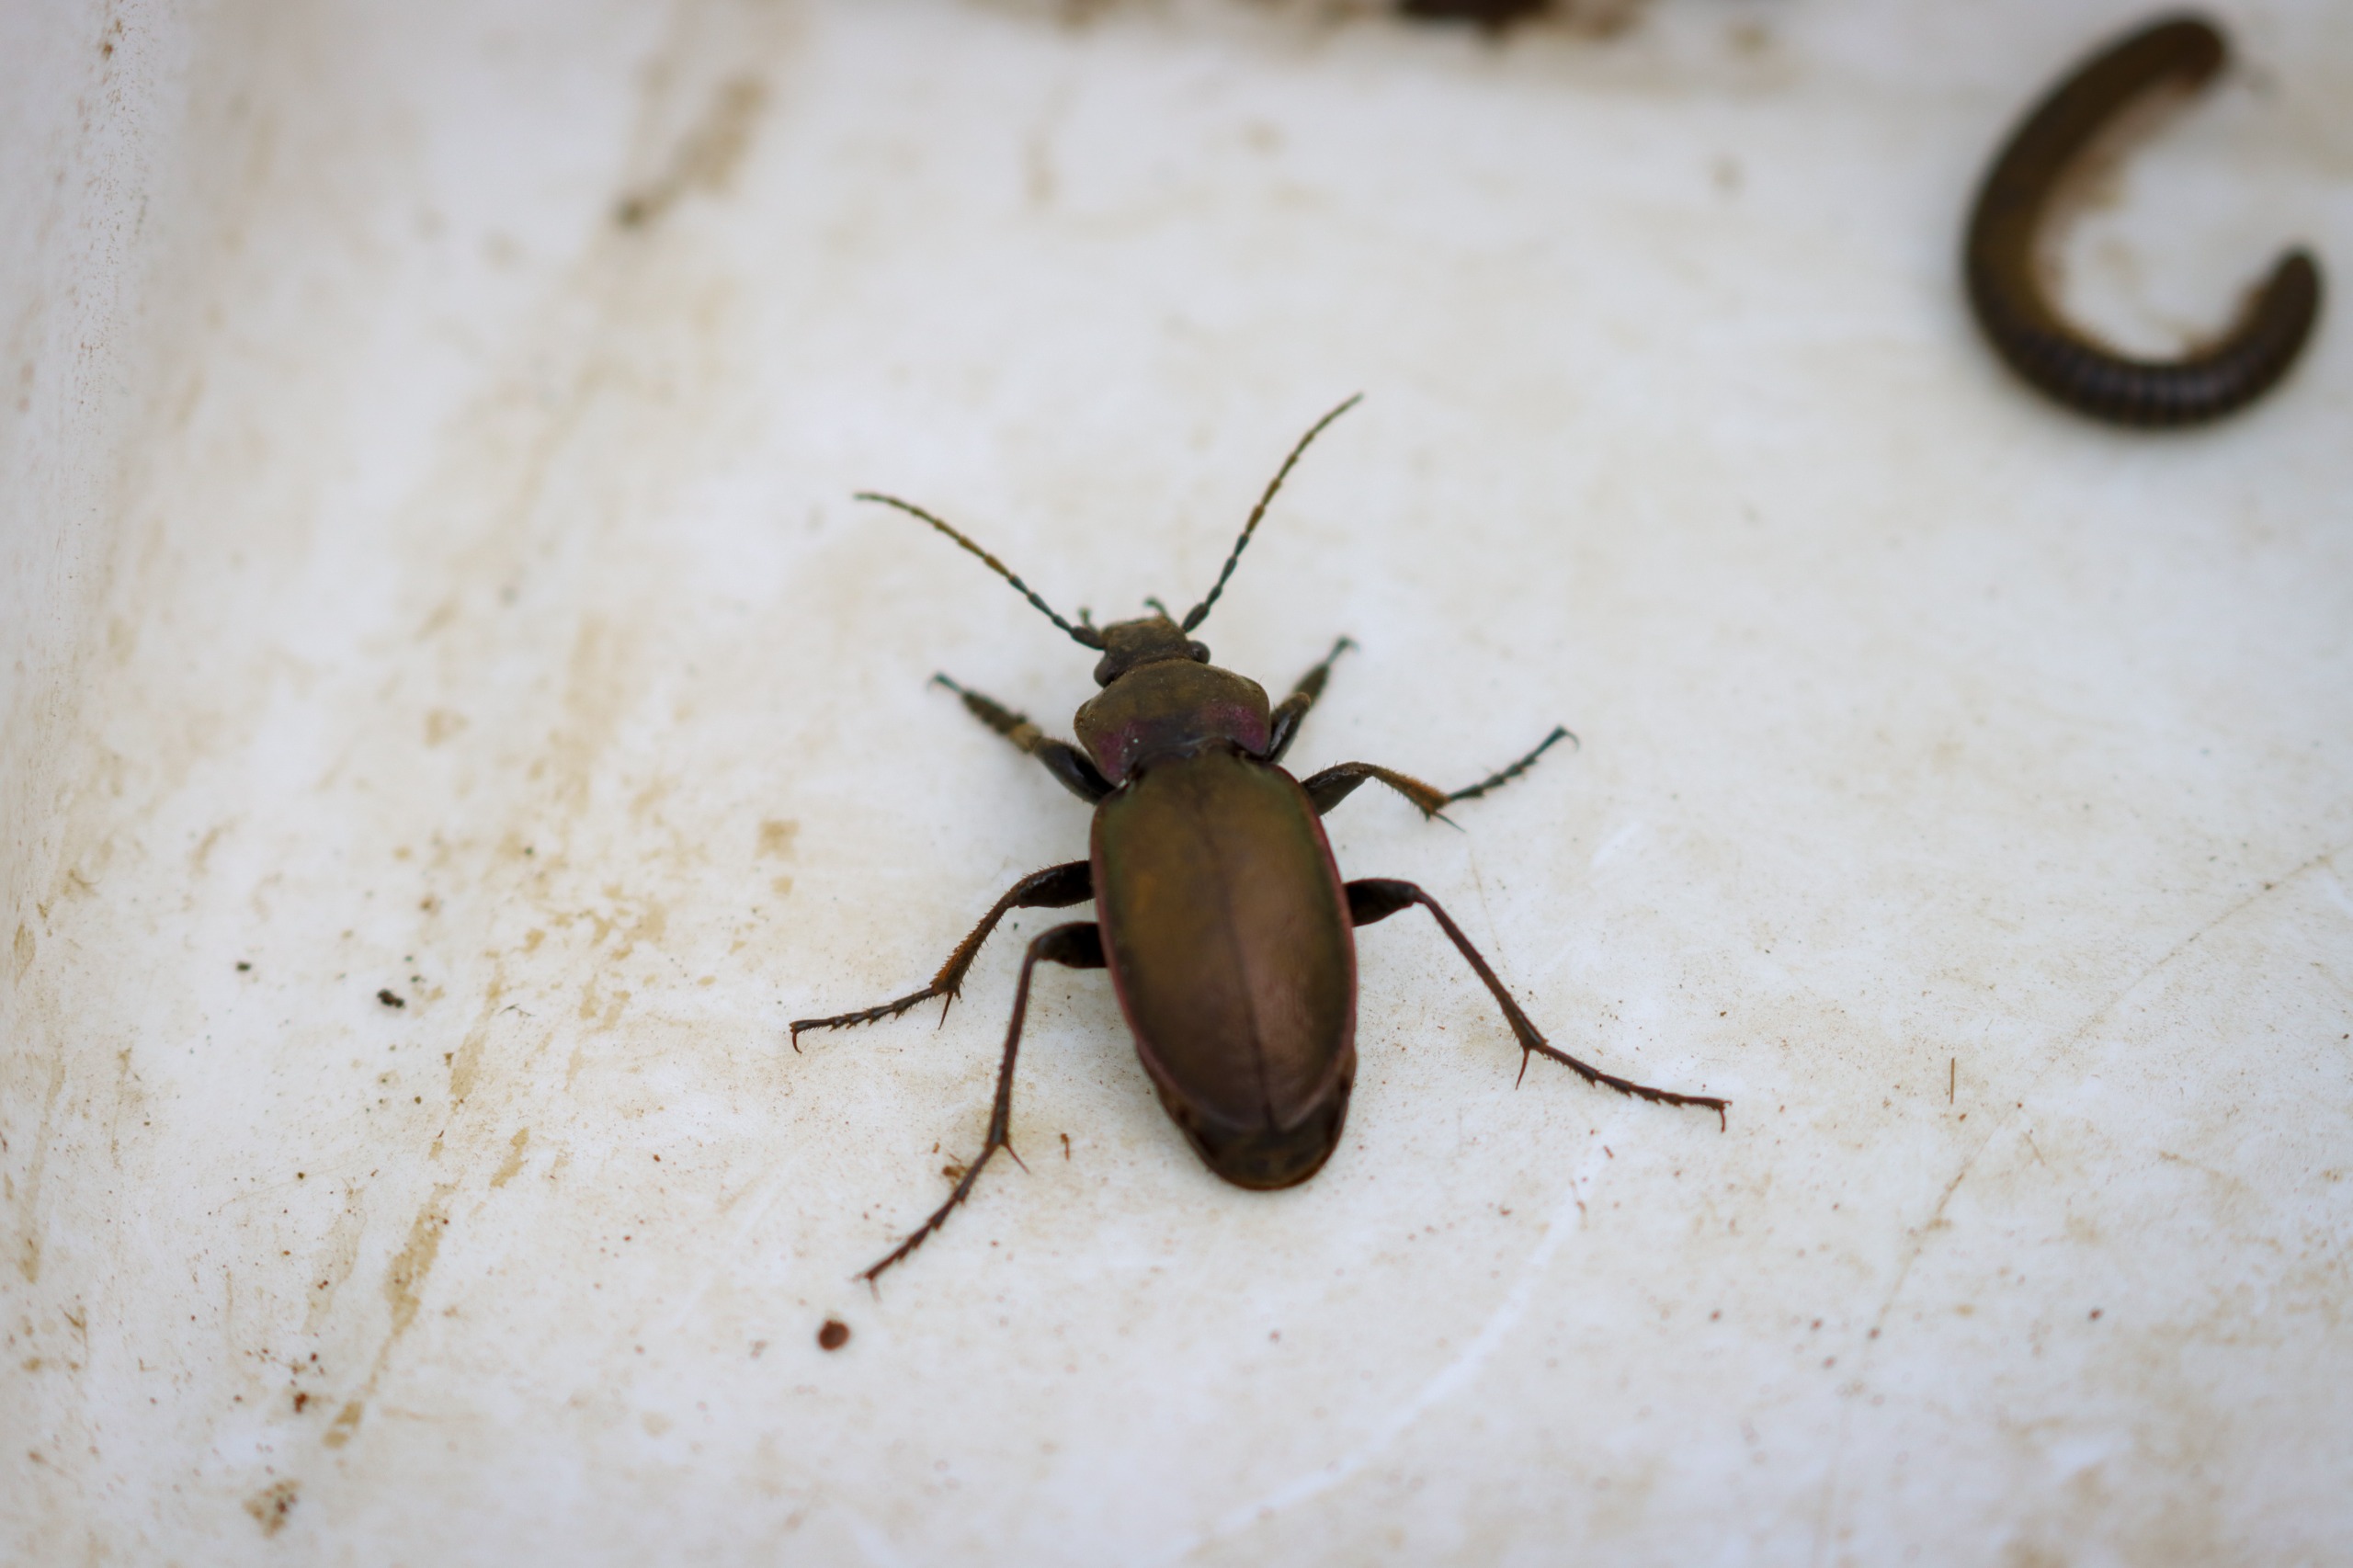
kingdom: Animalia
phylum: Arthropoda
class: Insecta
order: Coleoptera
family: Carabidae
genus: Carabus
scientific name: Carabus nemoralis
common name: Kratløber
